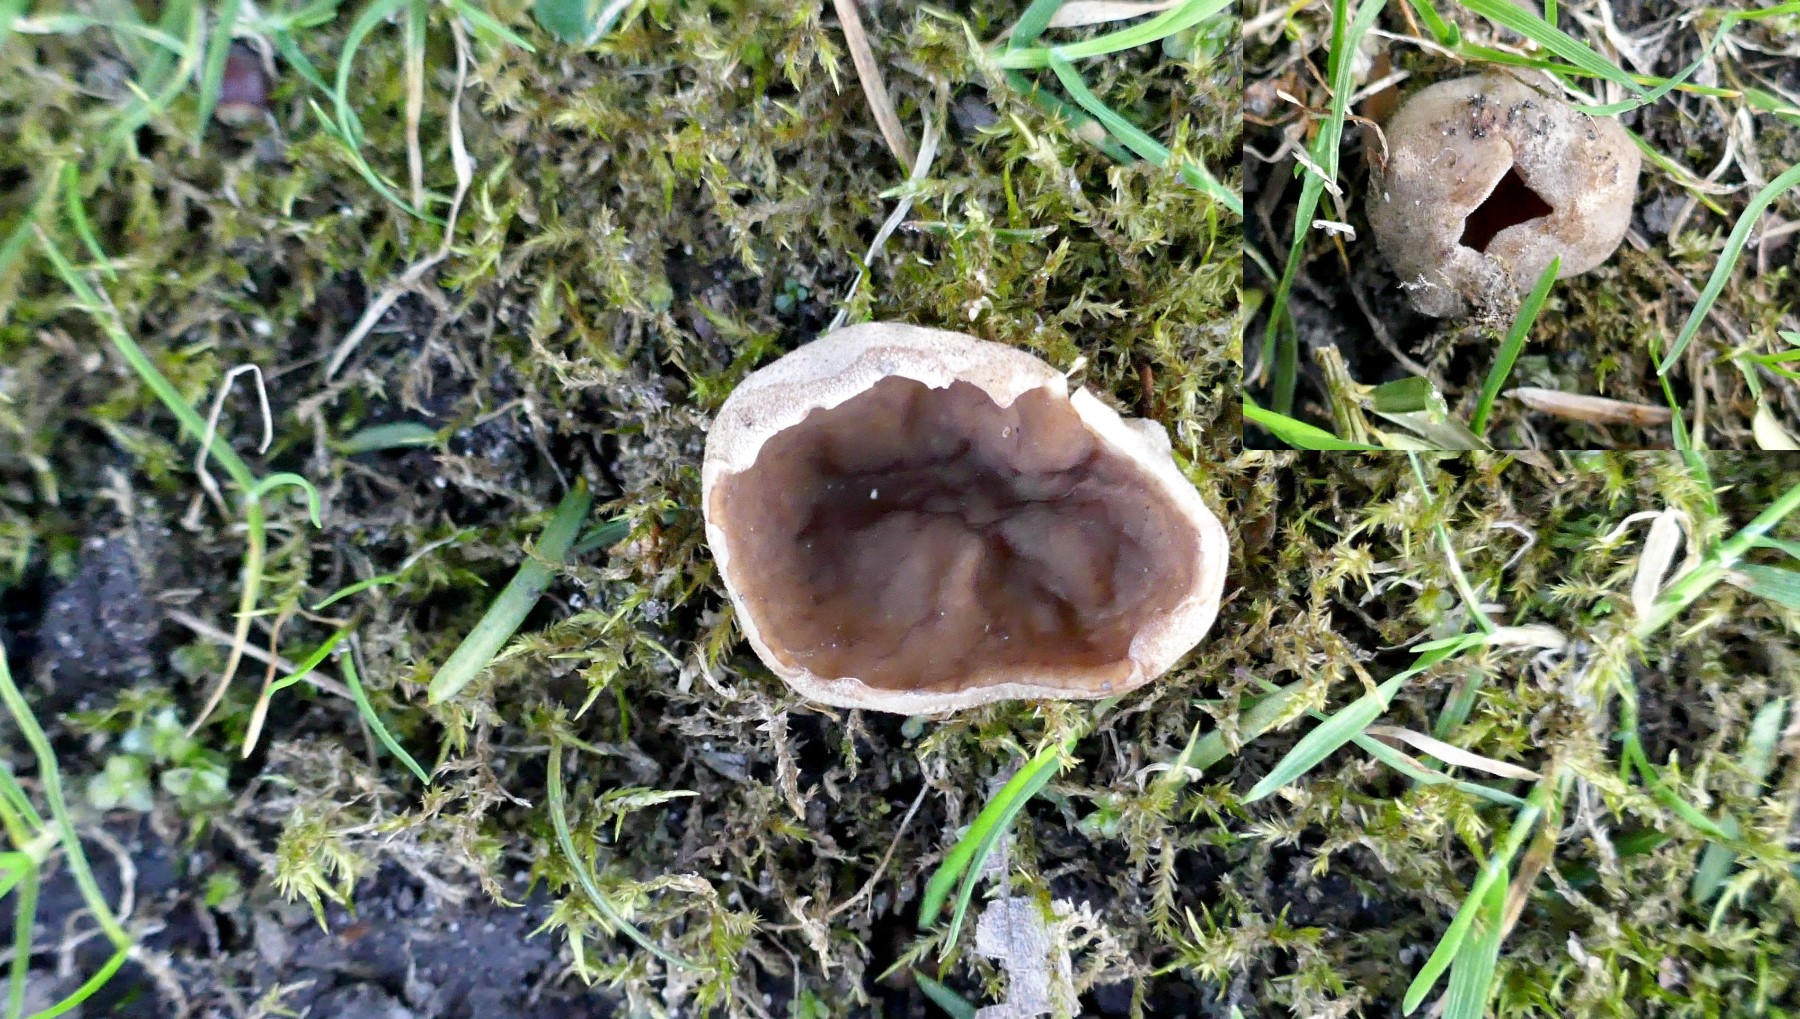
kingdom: Fungi
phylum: Ascomycota
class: Pezizomycetes
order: Pezizales
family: Morchellaceae
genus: Disciotis
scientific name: Disciotis venosa
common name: klor-bægermorkel
